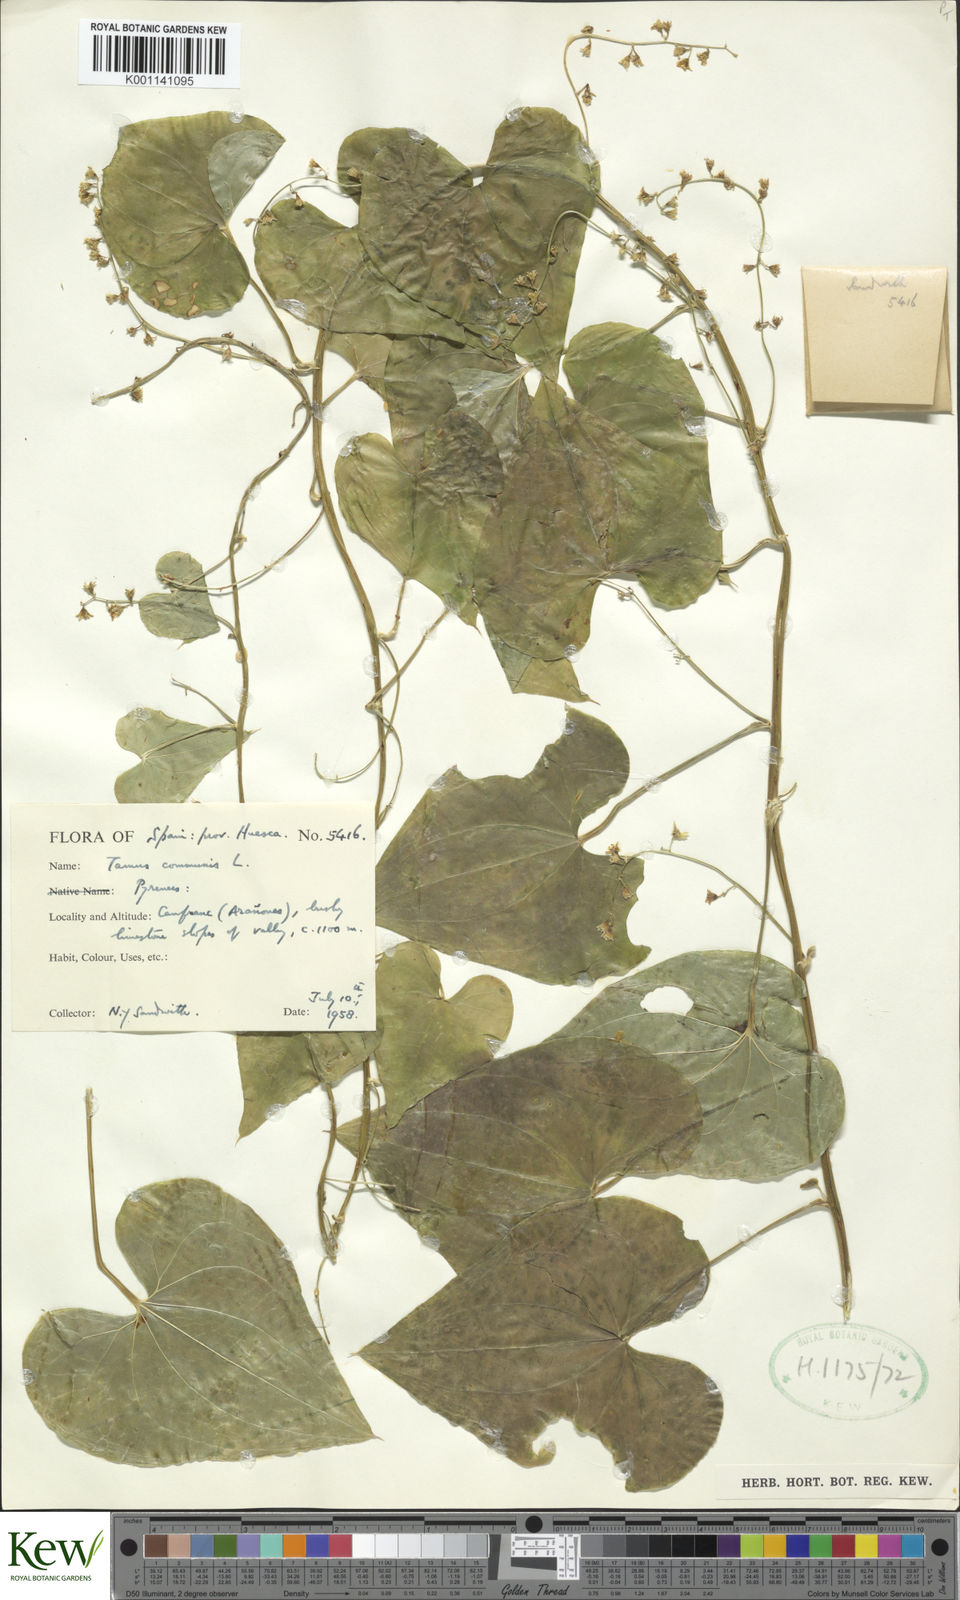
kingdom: Plantae
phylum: Tracheophyta
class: Liliopsida
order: Dioscoreales
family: Dioscoreaceae
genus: Dioscorea
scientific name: Dioscorea communis
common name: Black-bindweed
